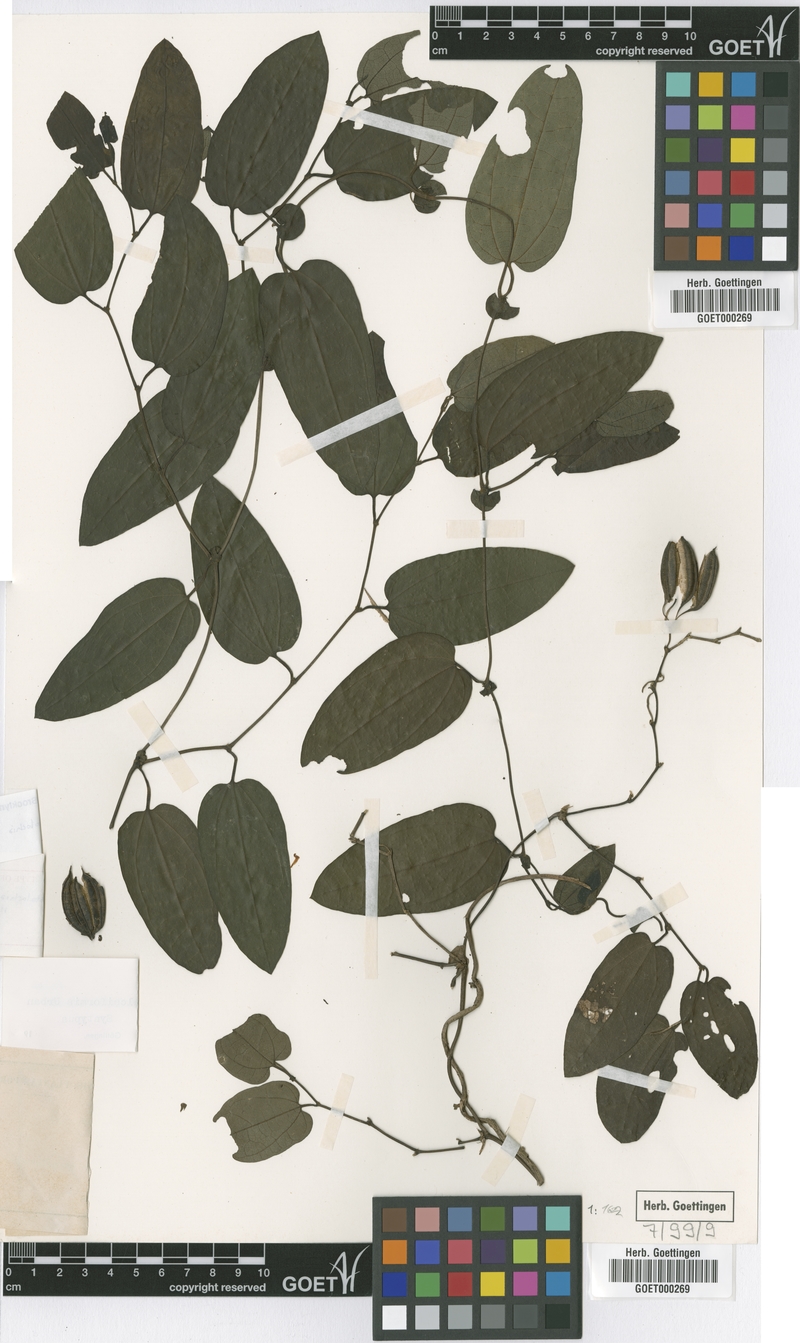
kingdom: Plantae
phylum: Tracheophyta
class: Magnoliopsida
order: Piperales
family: Aristolochiaceae
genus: Aristolochia
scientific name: Aristolochia oblongata
